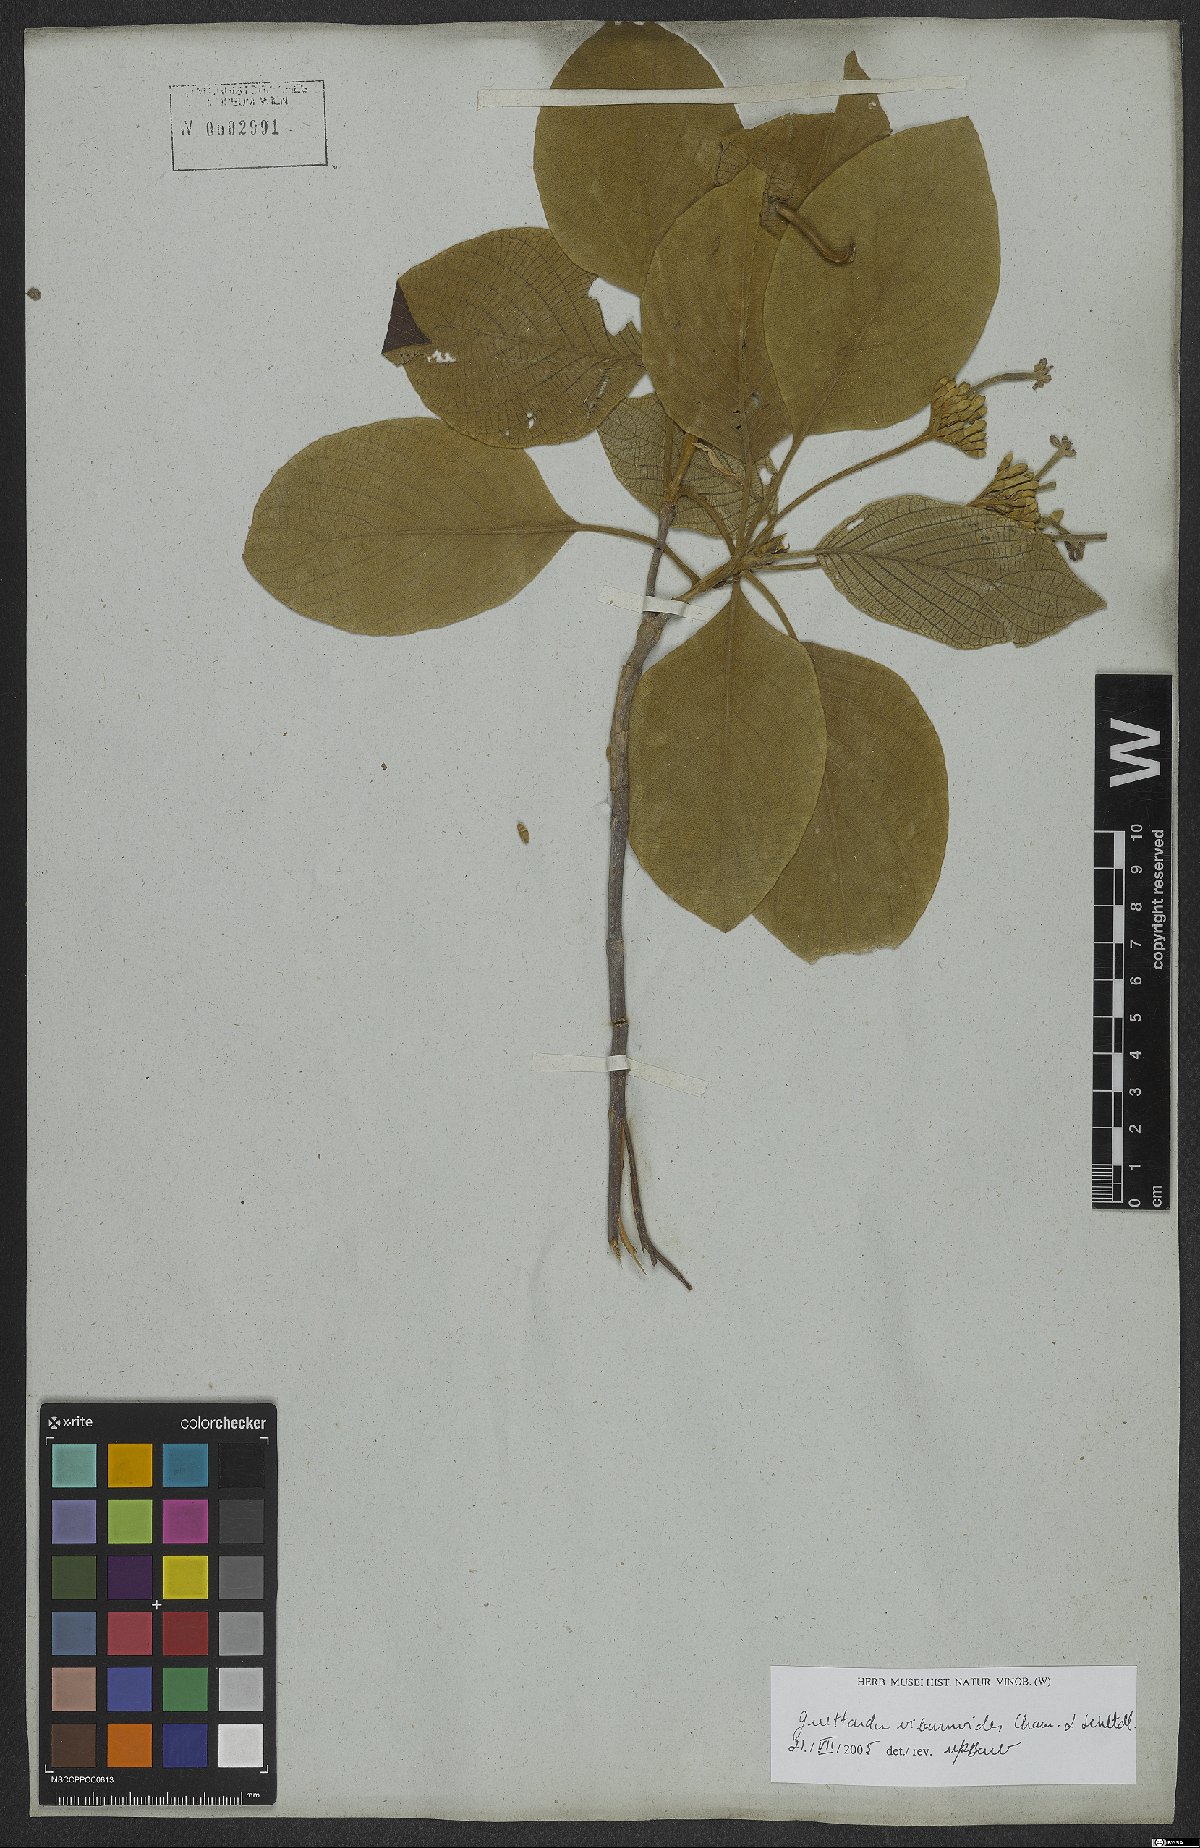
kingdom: Plantae
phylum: Tracheophyta
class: Magnoliopsida
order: Gentianales
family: Rubiaceae
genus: Guettarda
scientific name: Guettarda viburnoides
